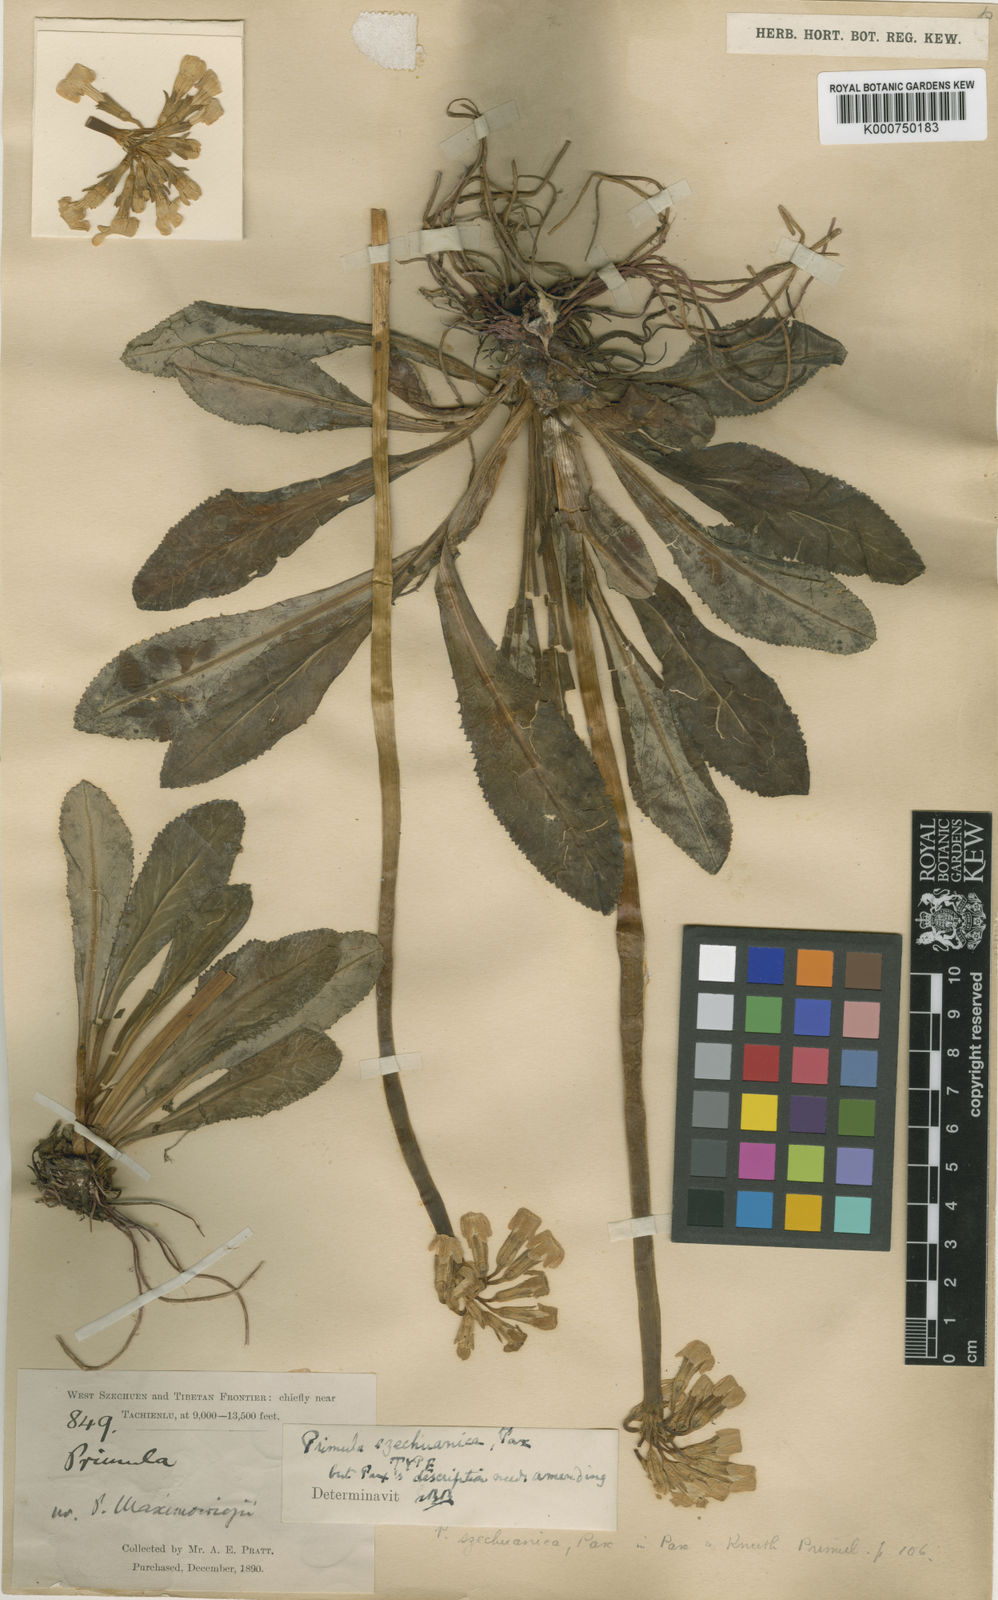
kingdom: Plantae
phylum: Tracheophyta
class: Magnoliopsida
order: Ericales
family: Primulaceae
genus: Primula
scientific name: Primula szechuanica
